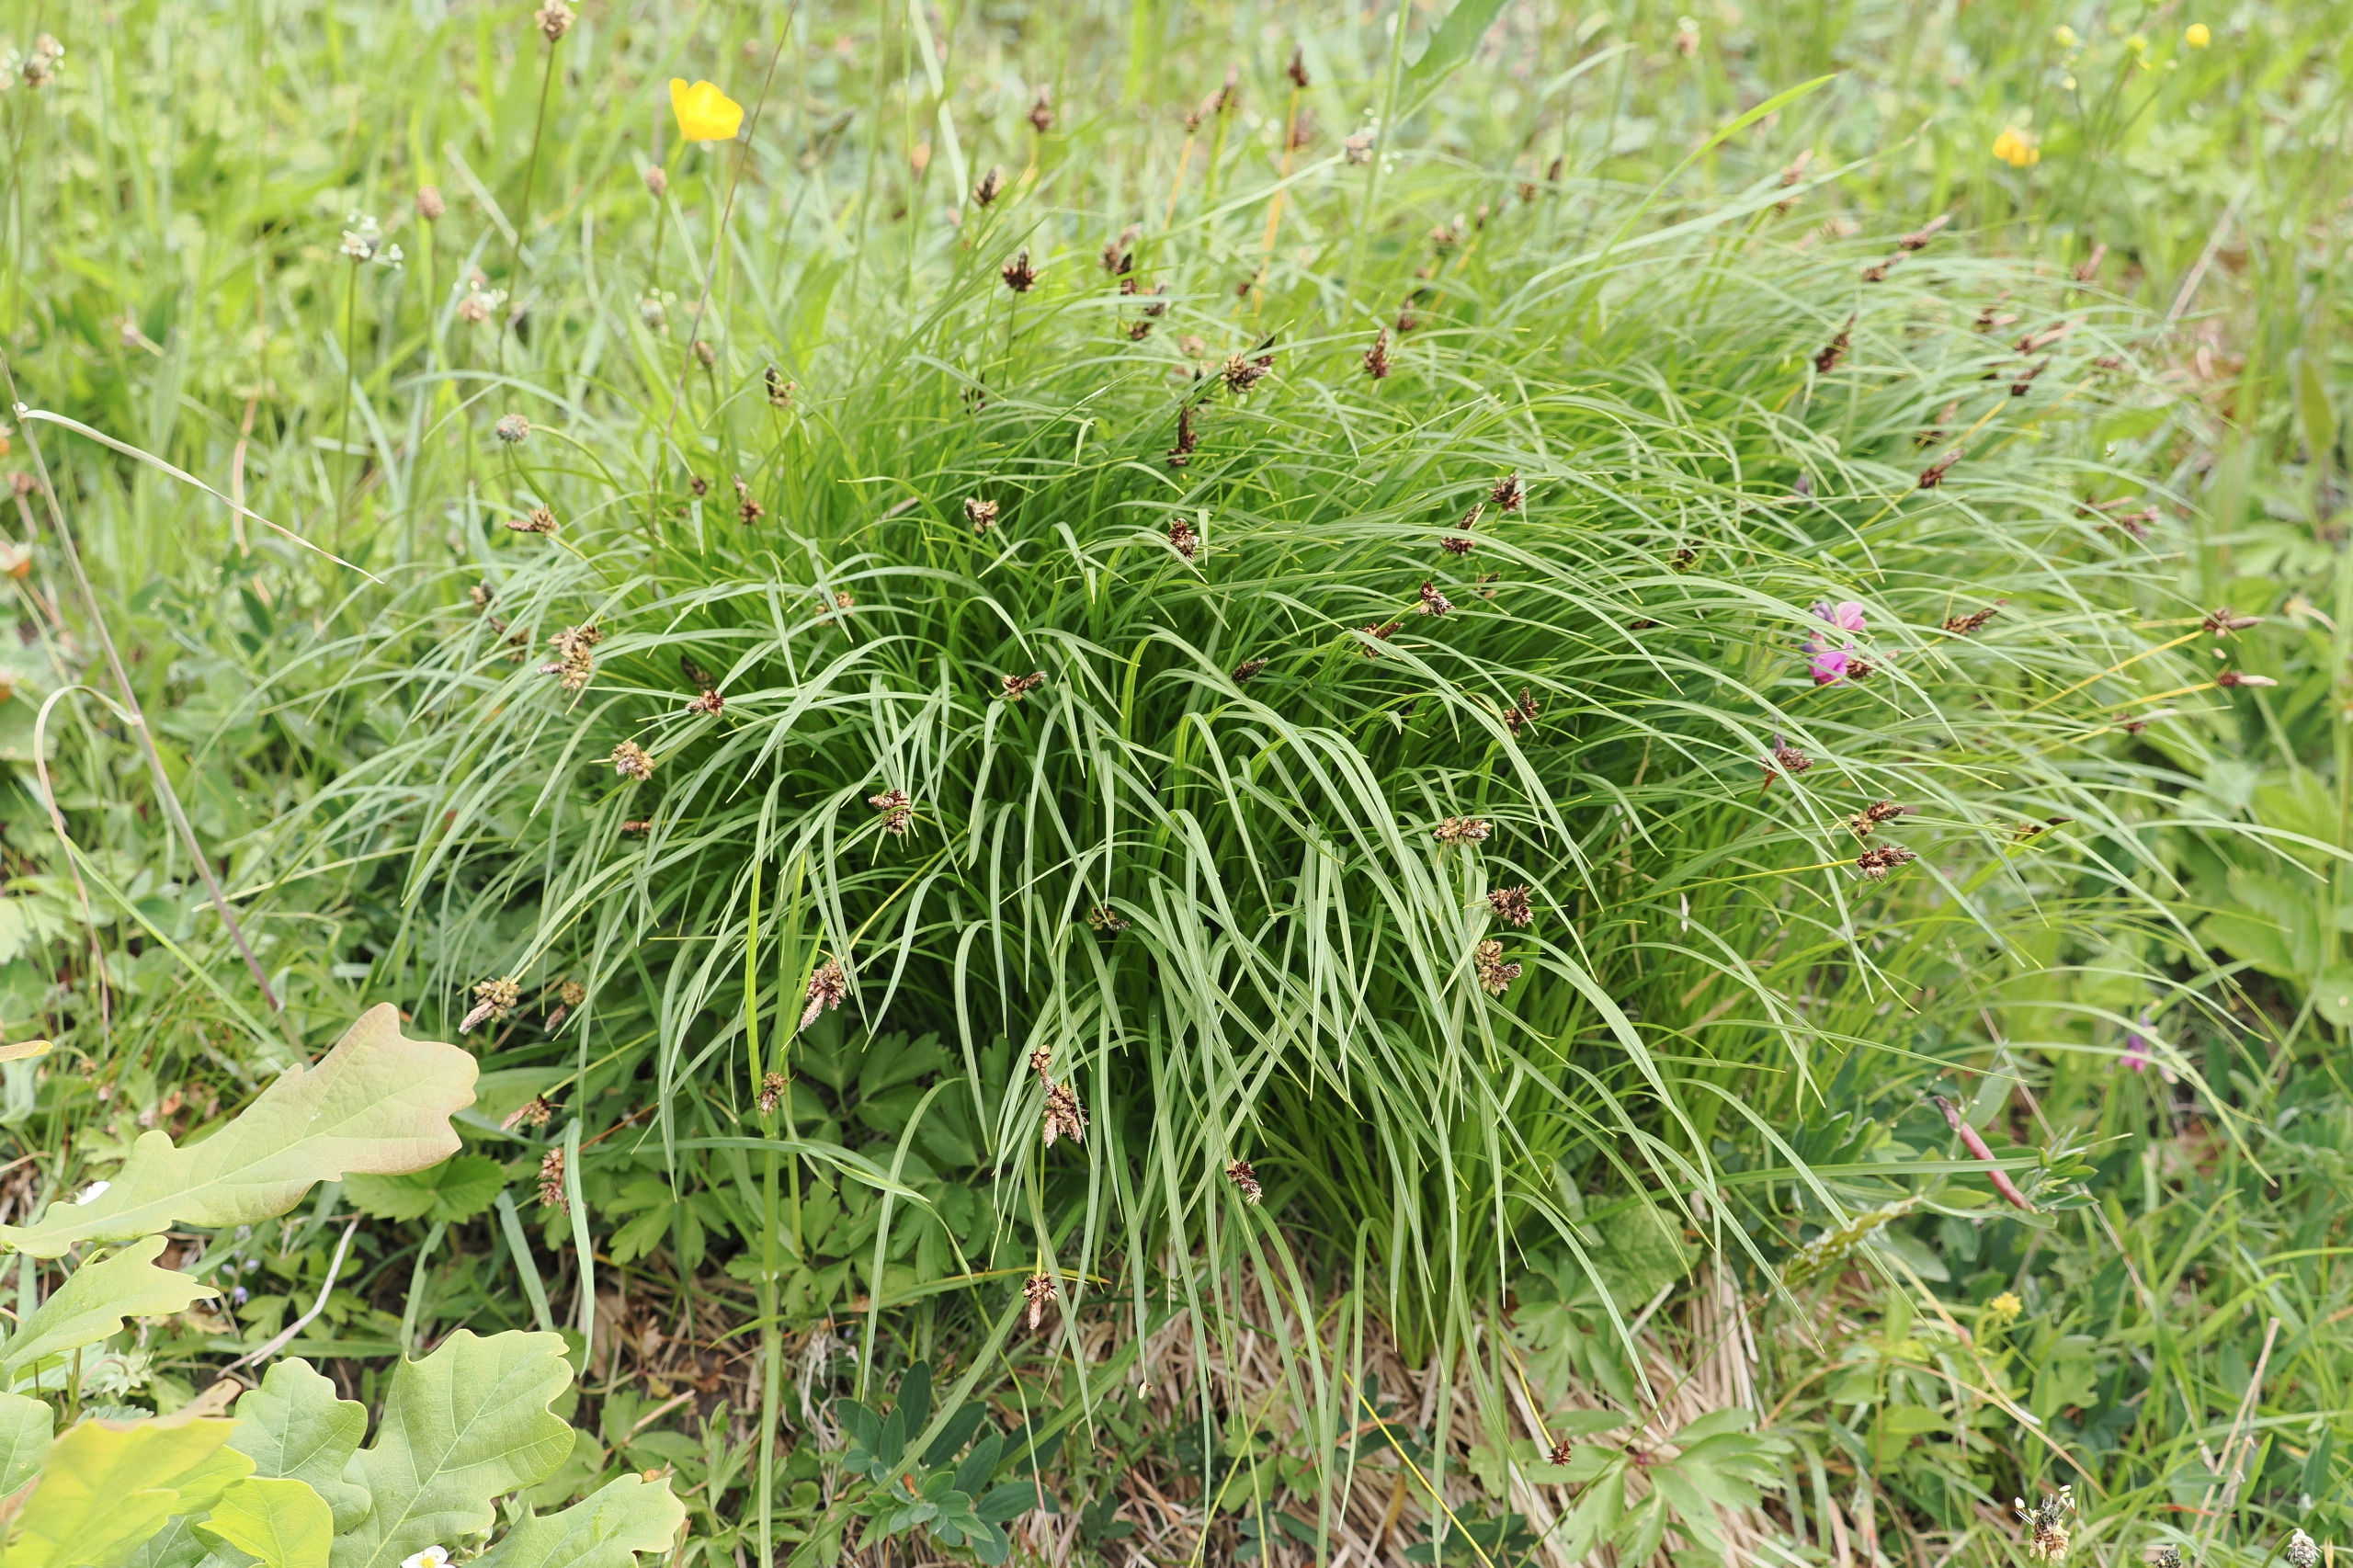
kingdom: Plantae
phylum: Tracheophyta
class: Liliopsida
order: Poales
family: Cyperaceae
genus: Carex
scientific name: Carex montana
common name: Bakke-star
